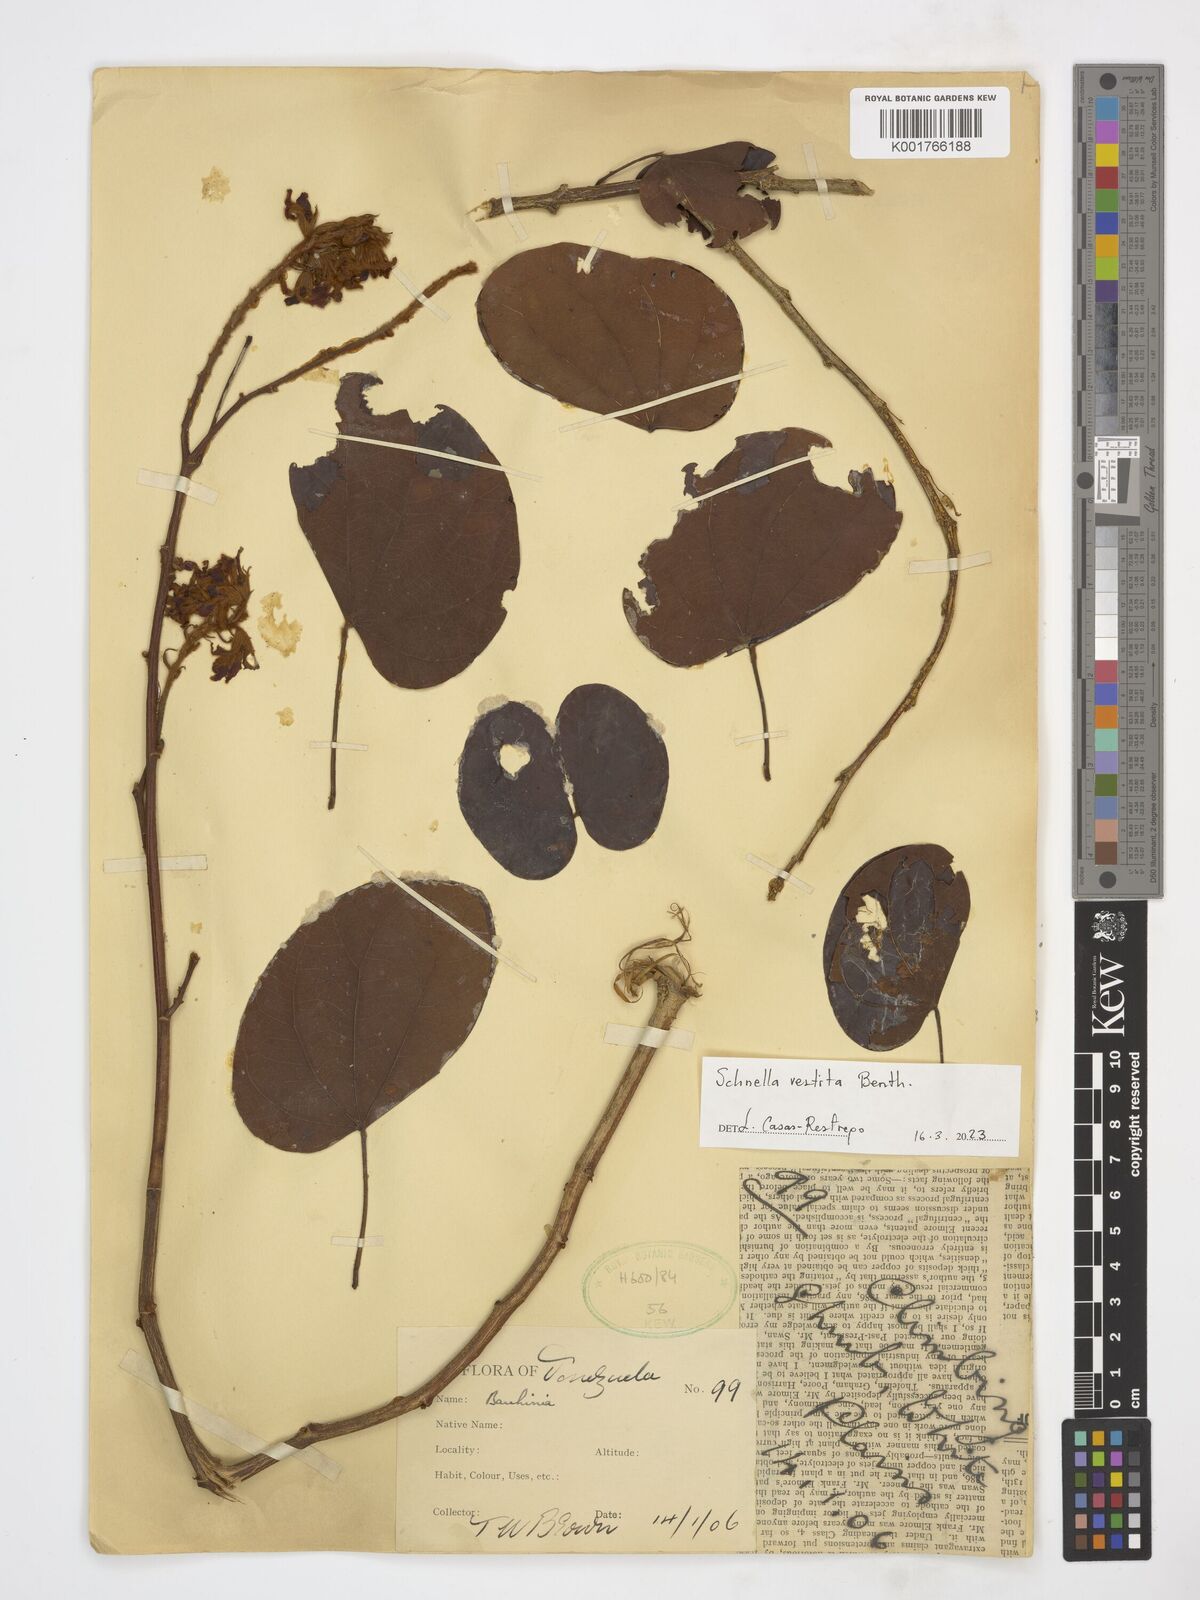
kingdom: Plantae
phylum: Tracheophyta
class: Magnoliopsida
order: Fabales
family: Fabaceae
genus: Schnella
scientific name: Schnella vestita
